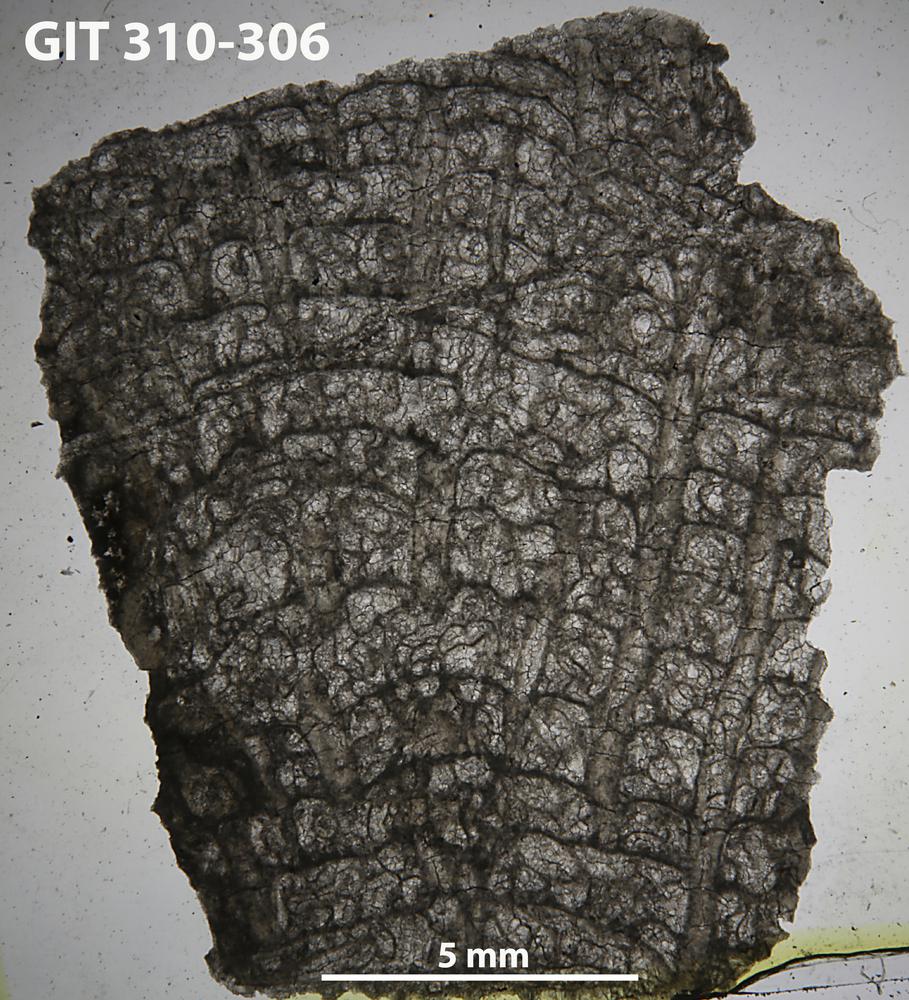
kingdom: Animalia
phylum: Cnidaria
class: Anthozoa
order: Heliolitina
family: Heliolitidae
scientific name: Heliolitidae
